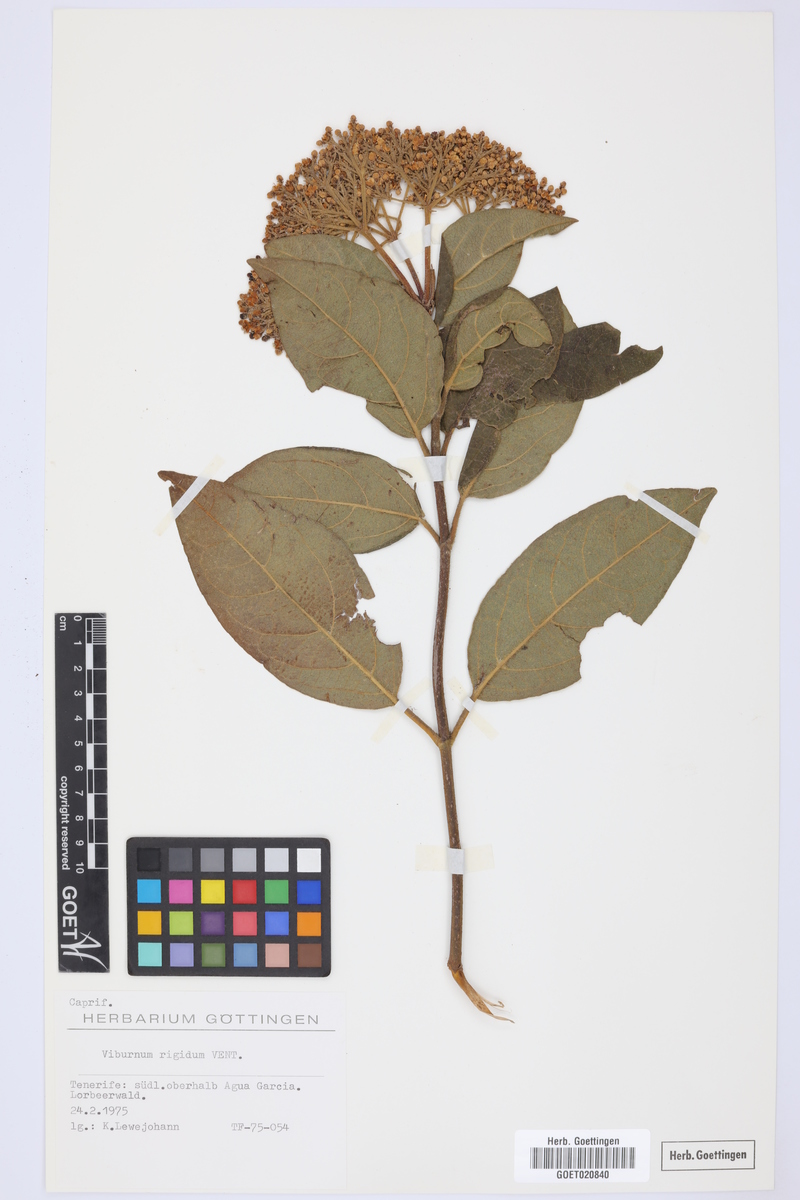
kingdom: Plantae
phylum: Tracheophyta
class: Magnoliopsida
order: Dipsacales
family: Viburnaceae
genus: Viburnum
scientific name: Viburnum rugosum
